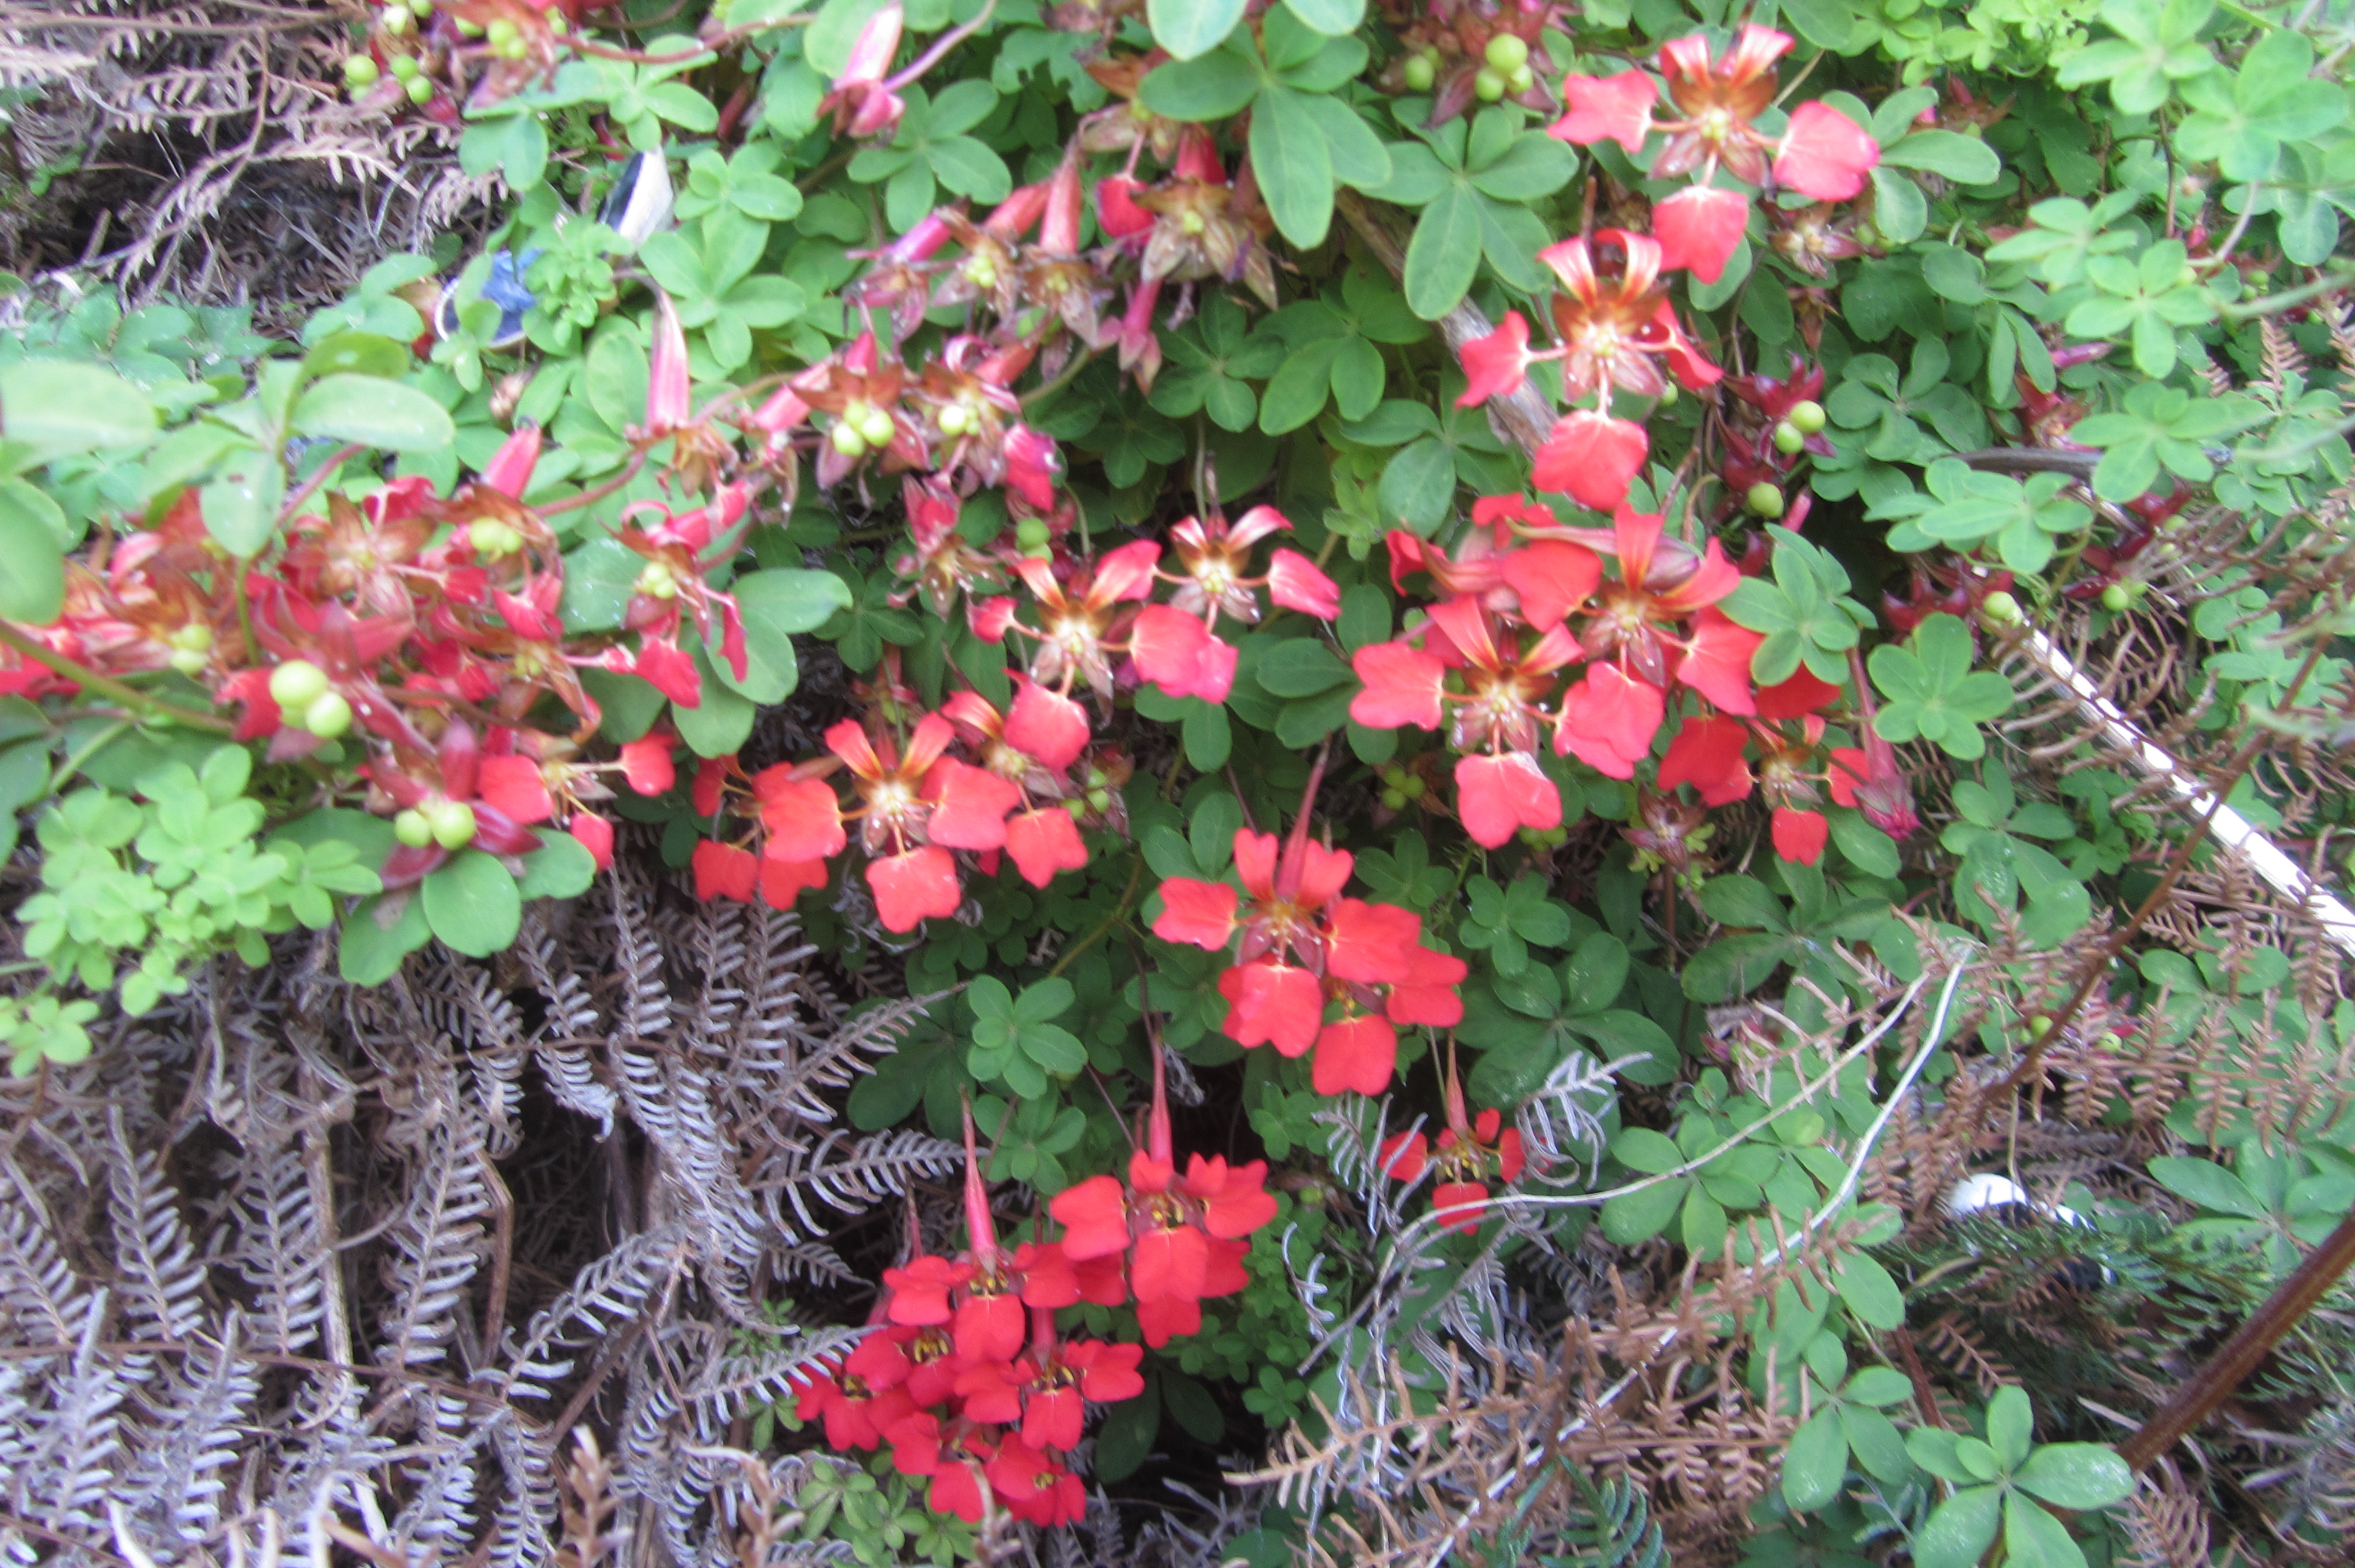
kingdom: Plantae
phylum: Tracheophyta
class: Magnoliopsida
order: Brassicales
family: Tropaeolaceae
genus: Tropaeolum
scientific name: Tropaeolum speciosum
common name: Flame nasturtium
